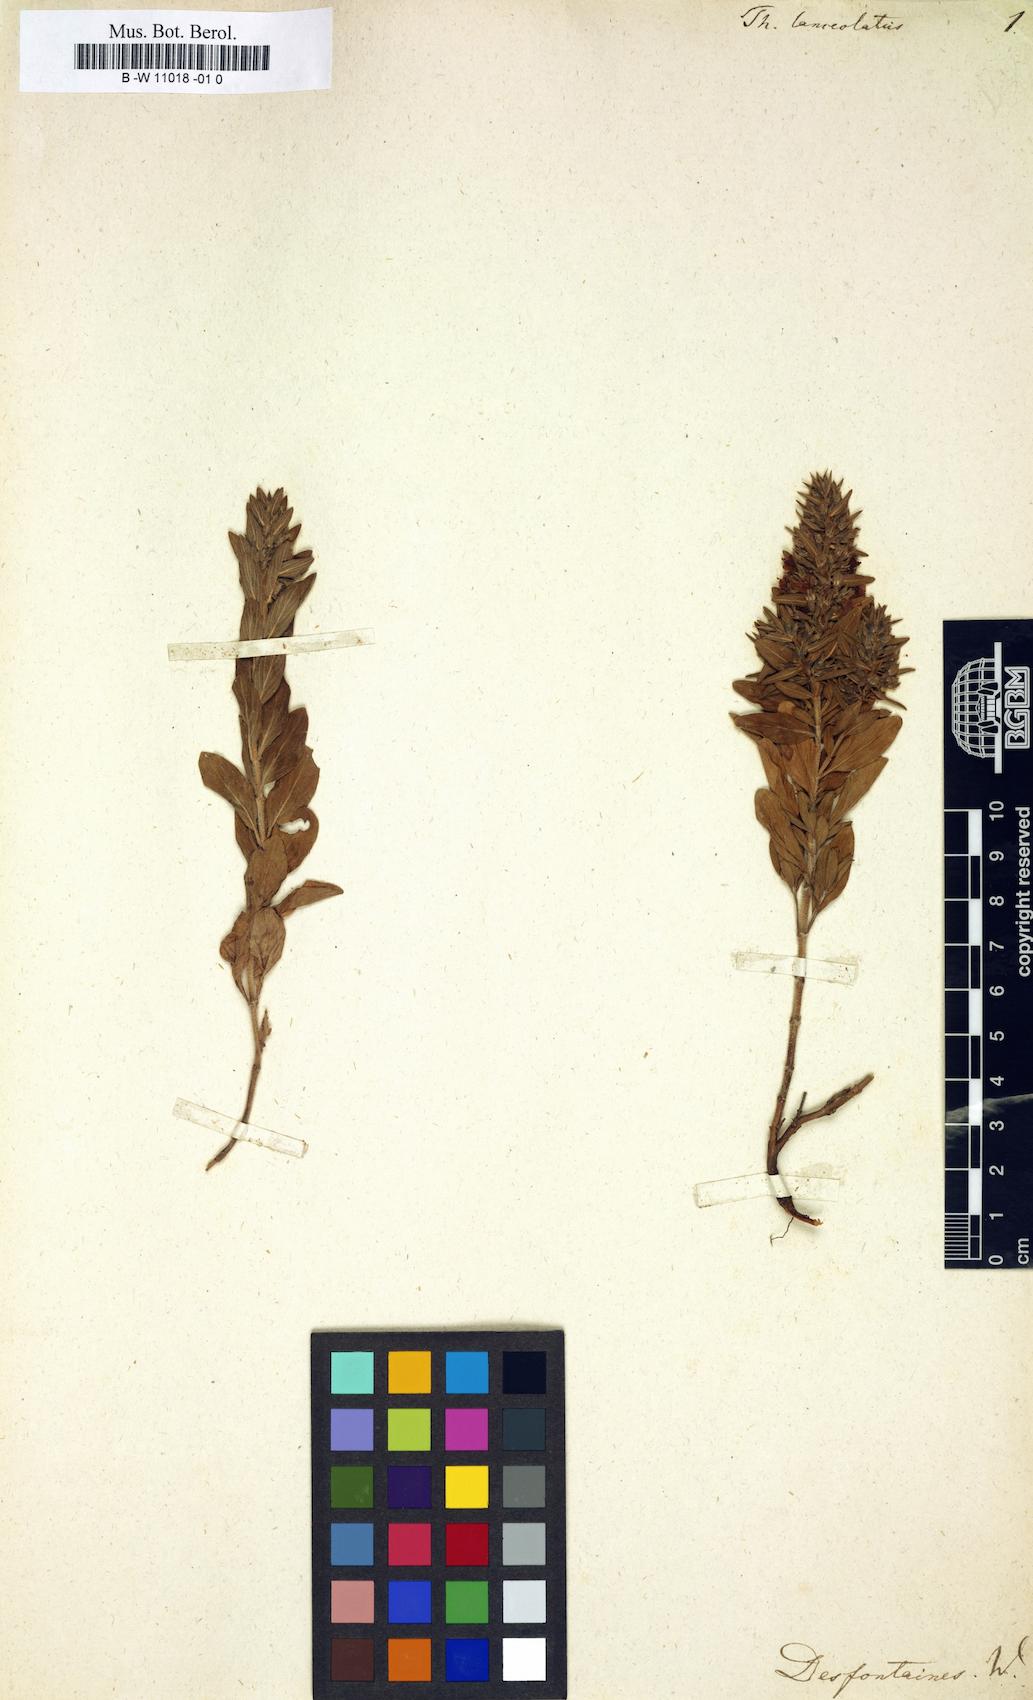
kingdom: Plantae
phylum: Tracheophyta
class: Magnoliopsida
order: Lamiales
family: Lamiaceae
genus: Thymus
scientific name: Thymus lanceolatus
